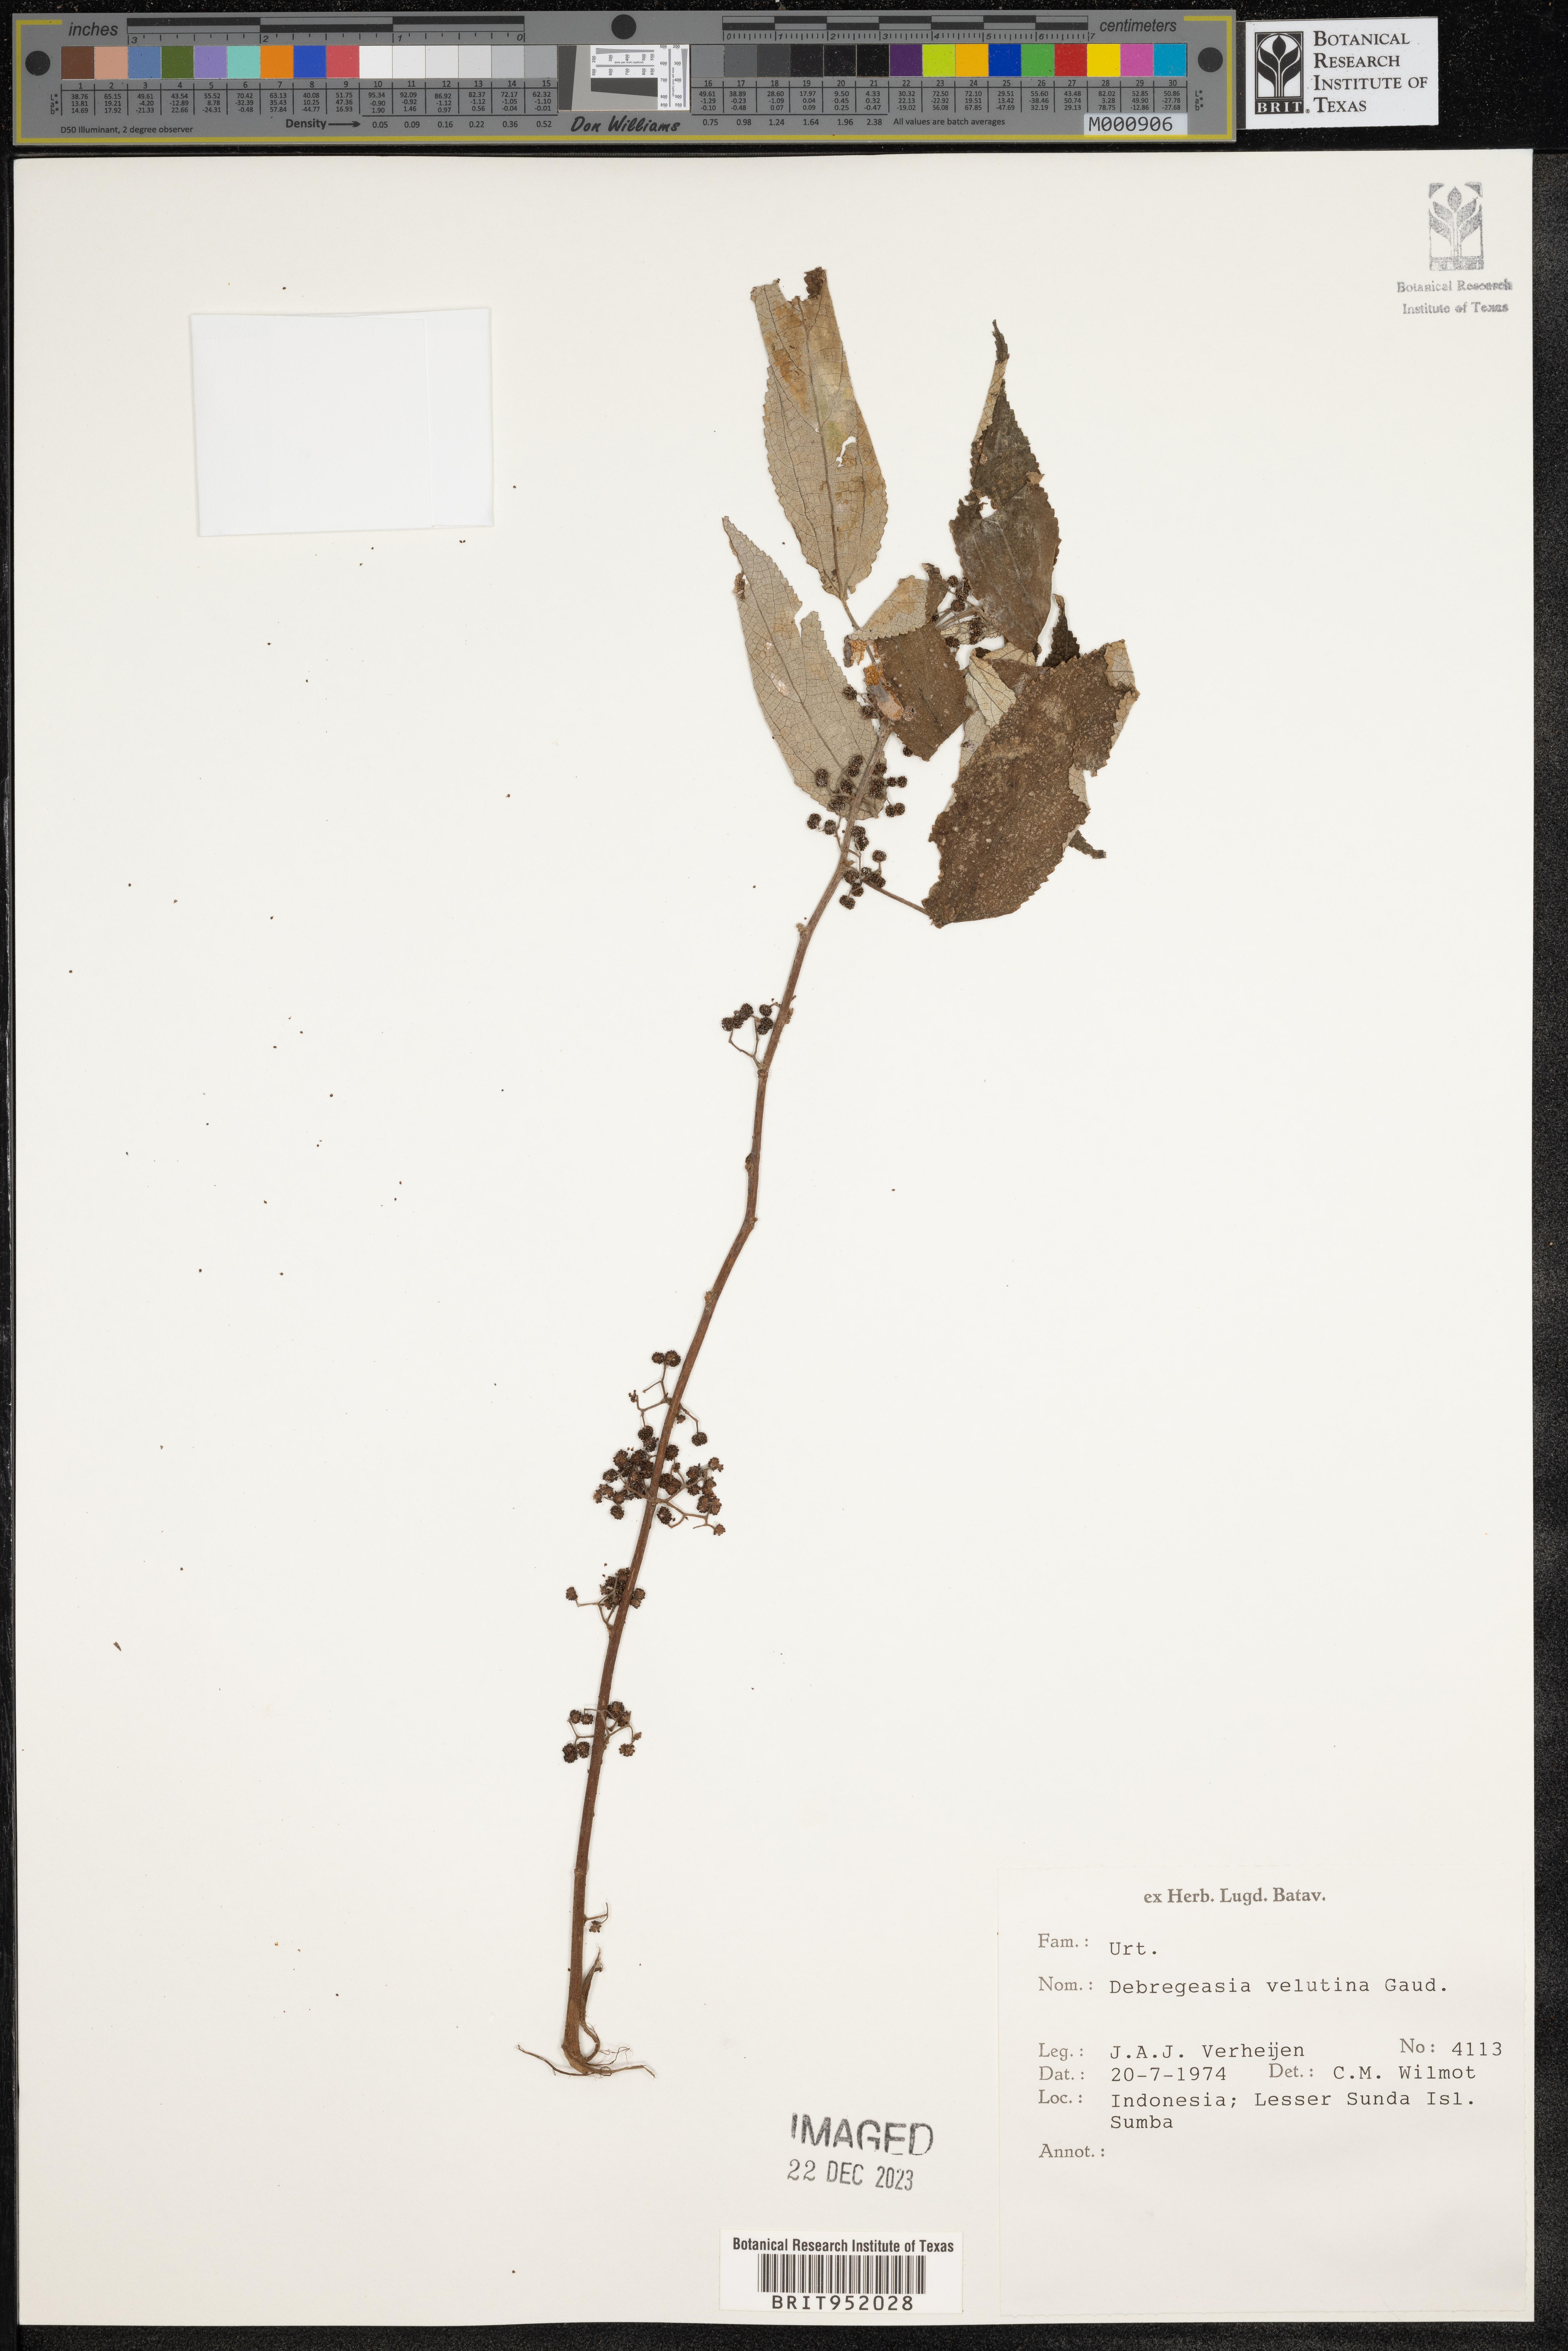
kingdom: Plantae
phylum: Tracheophyta
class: Magnoliopsida
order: Rosales
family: Urticaceae
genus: Debregeasia
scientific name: Debregeasia
